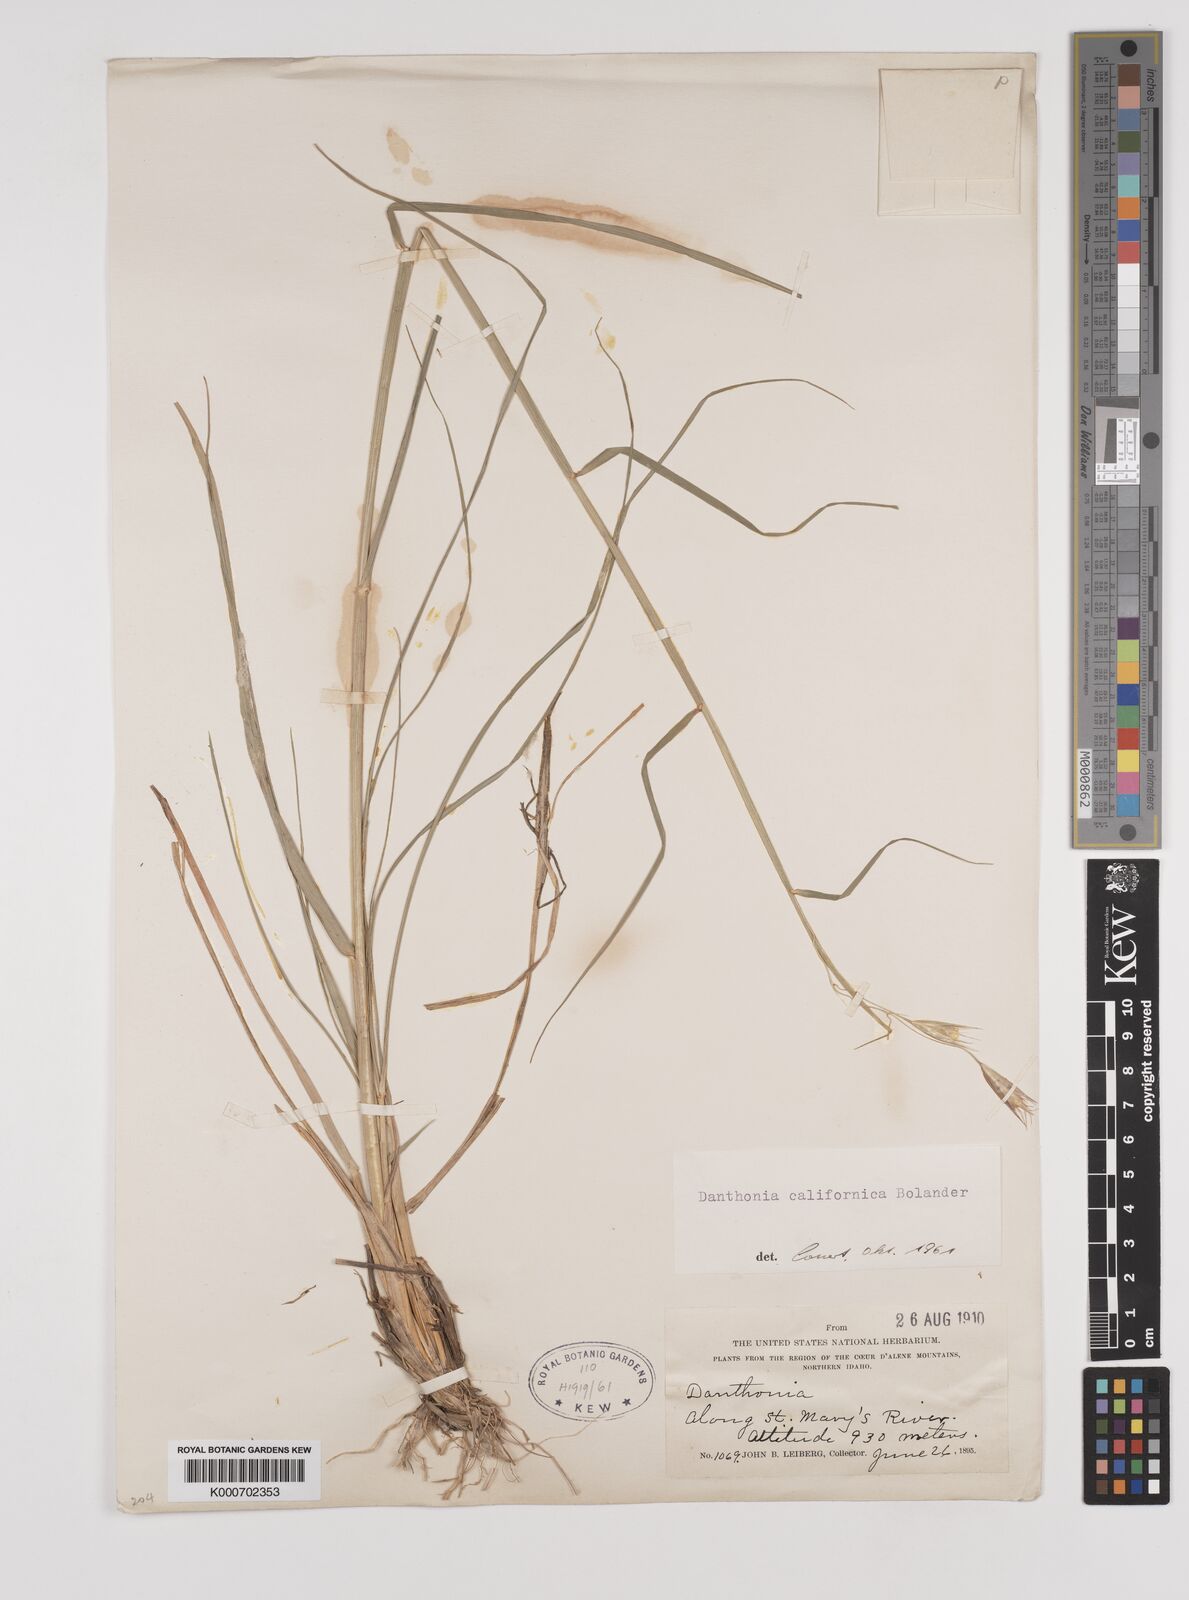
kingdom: Plantae
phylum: Tracheophyta
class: Liliopsida
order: Poales
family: Poaceae
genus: Danthonia
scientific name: Danthonia californica
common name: California oat grass
